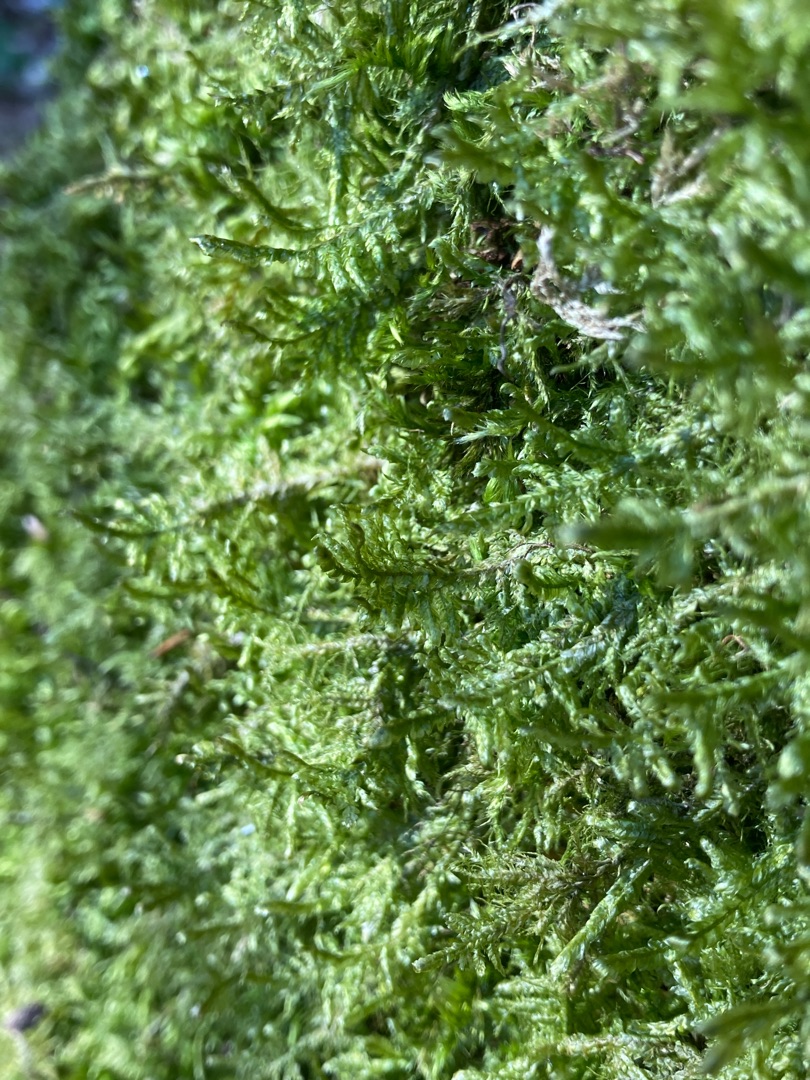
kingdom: Plantae
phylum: Bryophyta
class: Bryopsida
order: Hypnales
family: Neckeraceae
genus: Alleniella
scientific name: Alleniella complanata
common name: Almindelig fladmos
